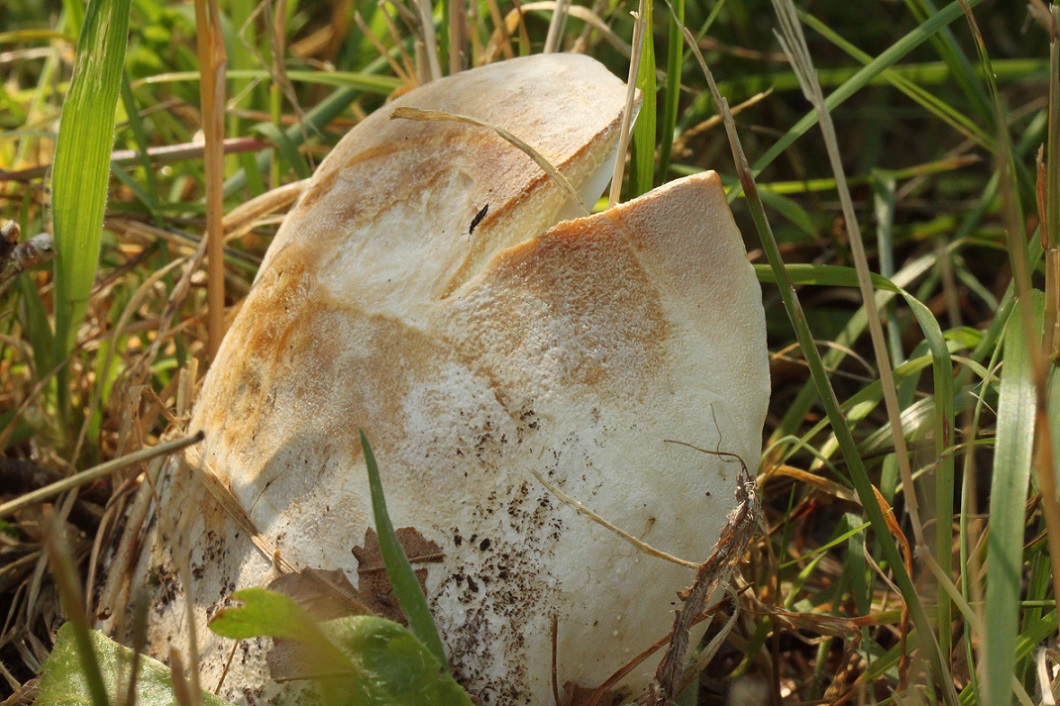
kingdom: Fungi
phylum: Basidiomycota
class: Agaricomycetes
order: Russulales
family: Russulaceae
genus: Lactifluus
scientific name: Lactifluus bertillonii
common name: blødfiltet mælkehat
